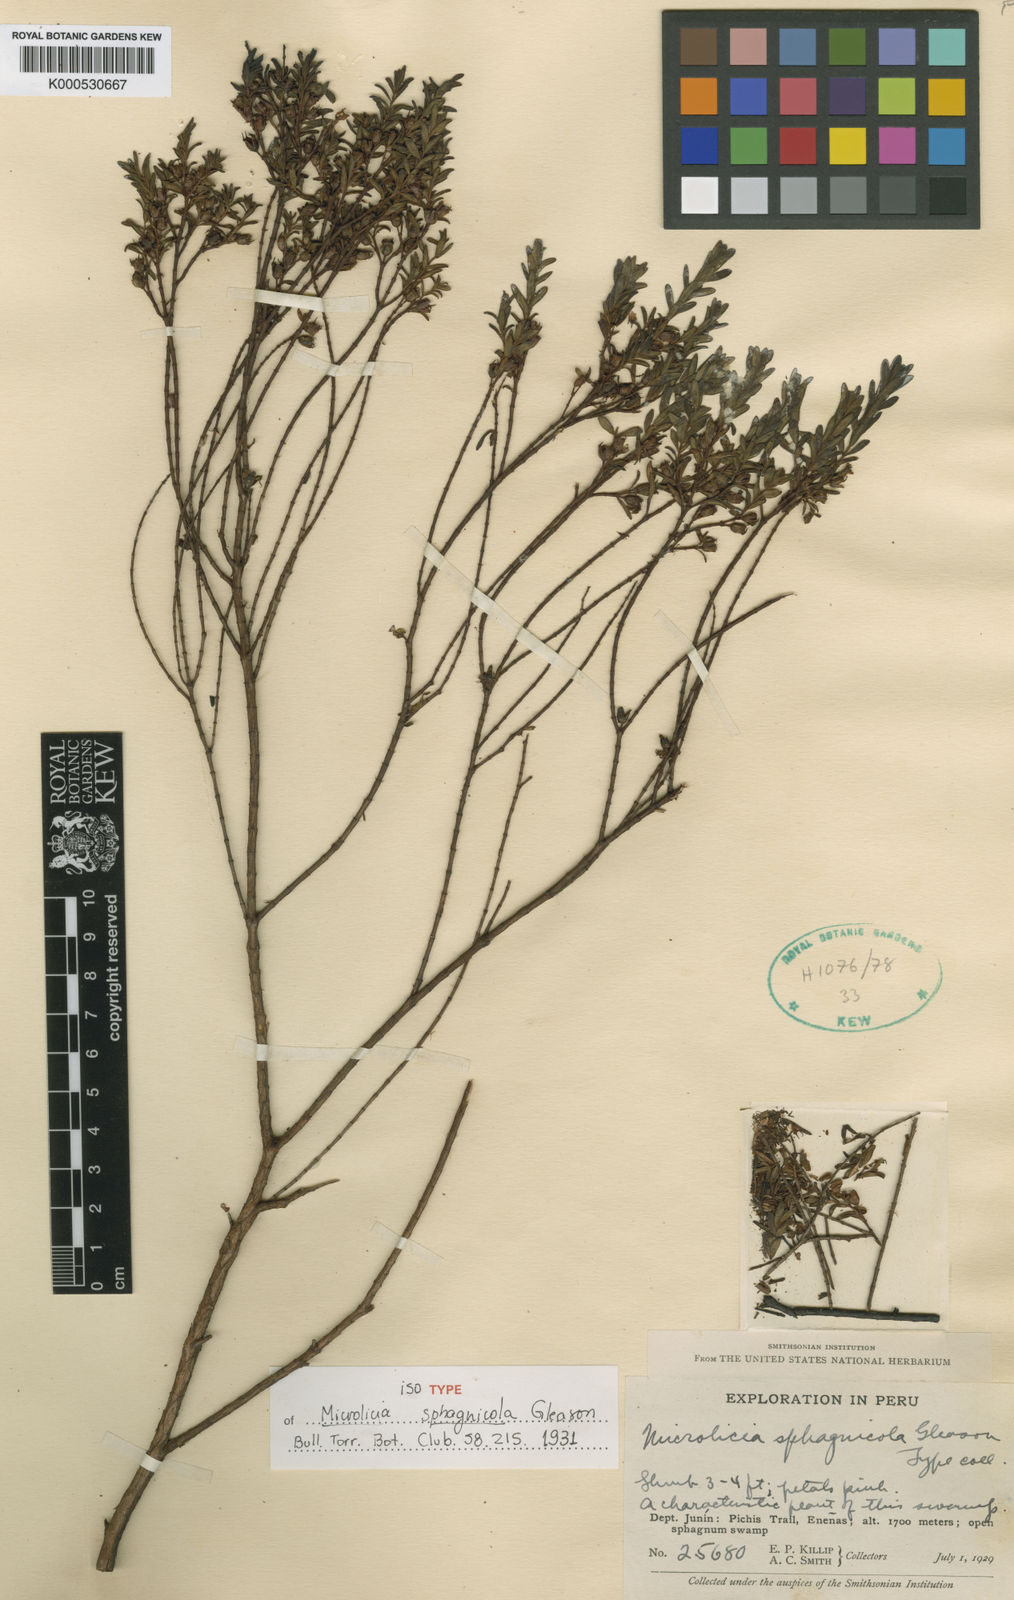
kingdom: Plantae
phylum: Tracheophyta
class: Magnoliopsida
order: Myrtales
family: Melastomataceae
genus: Microlicia
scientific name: Microlicia sphagnicola
